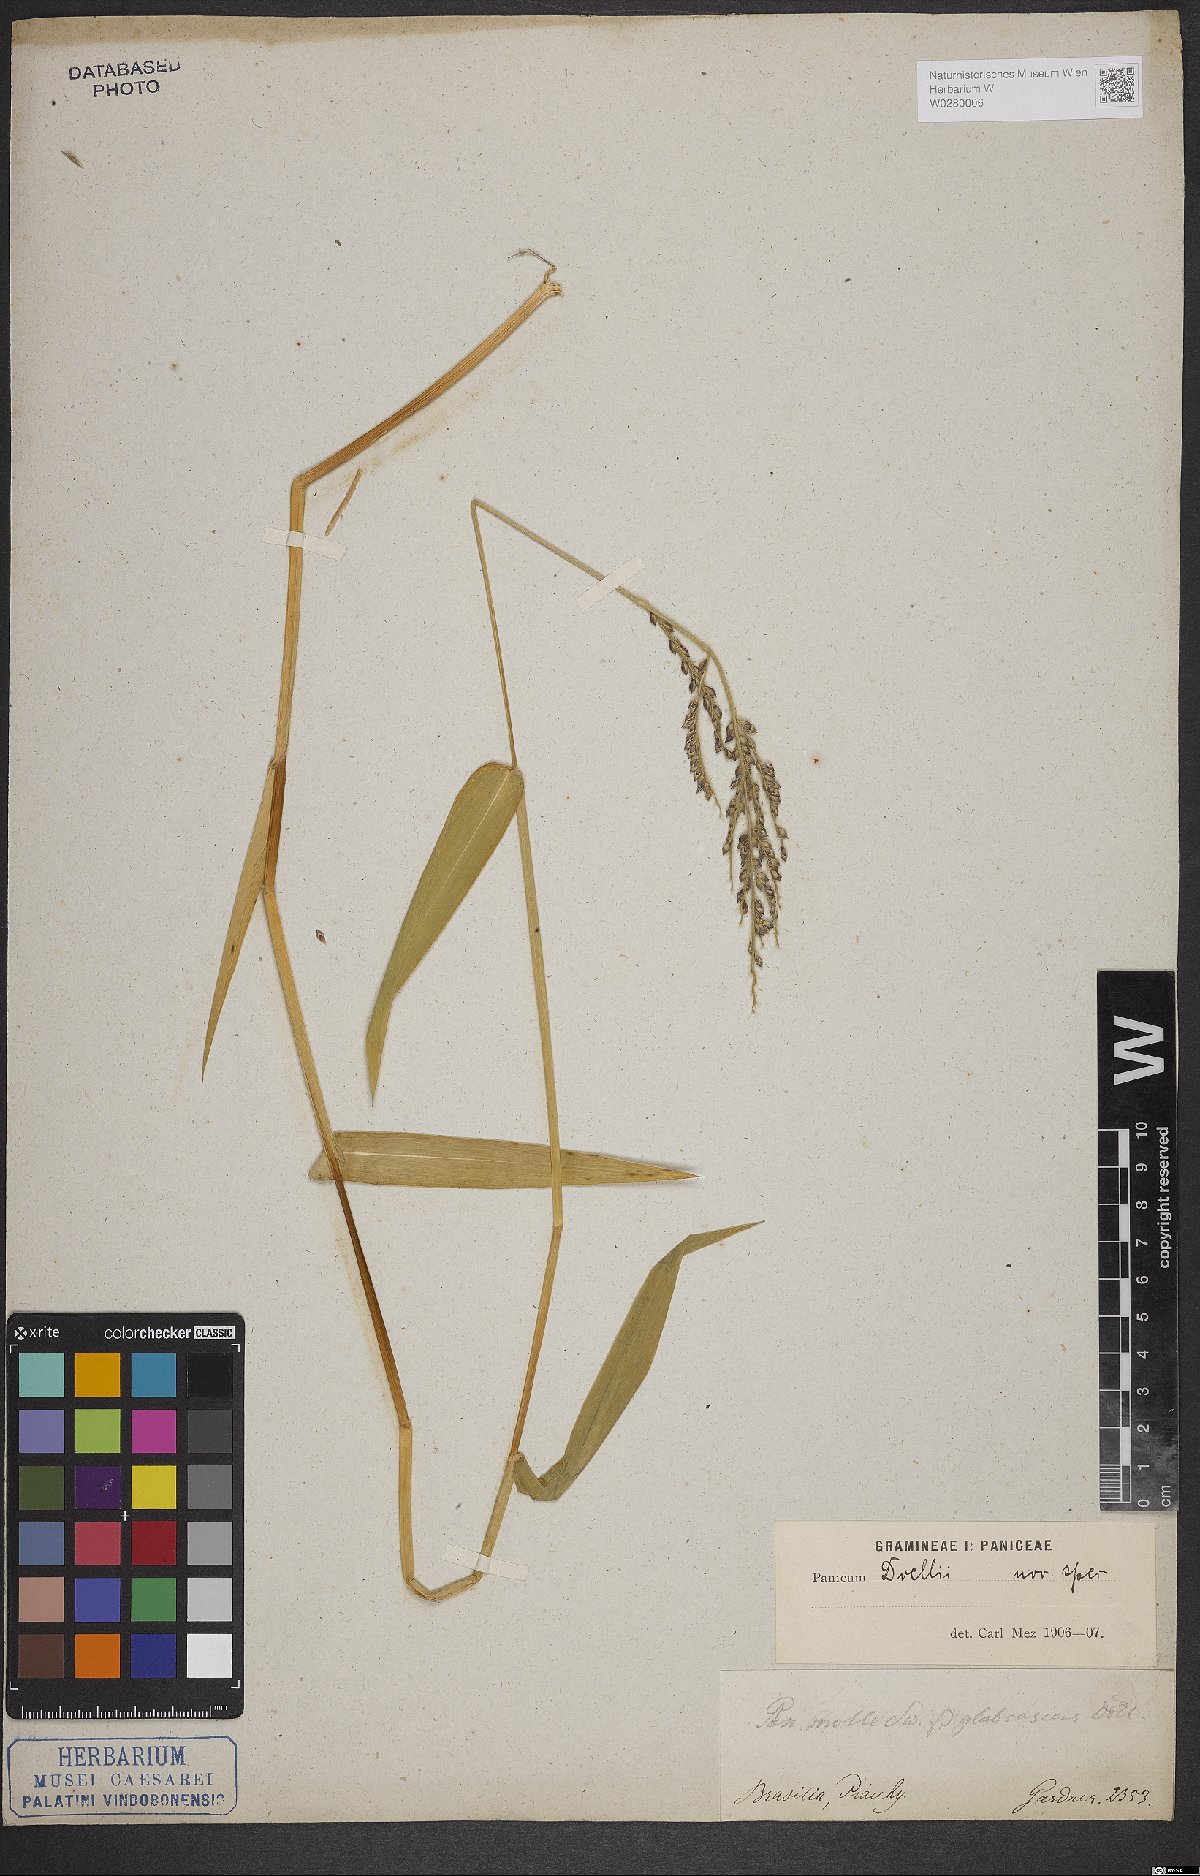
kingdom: Plantae
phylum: Tracheophyta
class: Liliopsida
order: Poales
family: Poaceae
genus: Urochloa
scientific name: Urochloa mollis
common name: Grass
